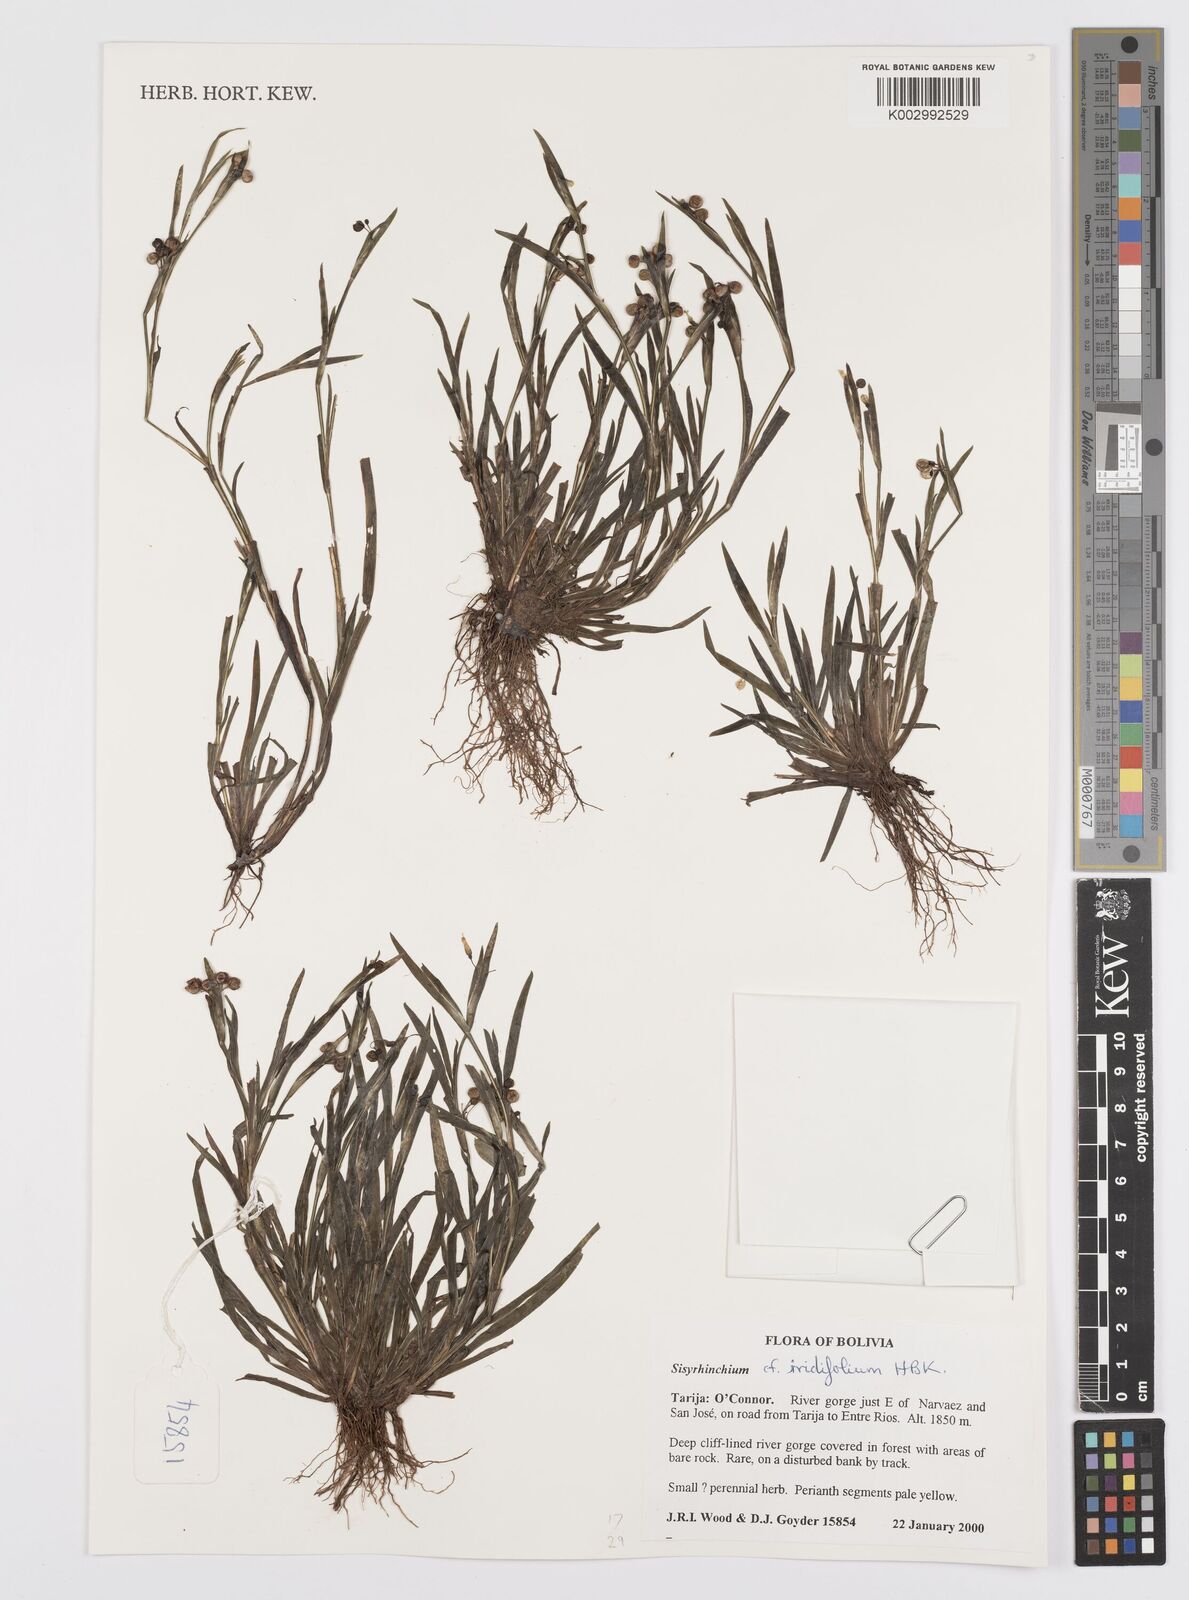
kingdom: Plantae
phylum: Tracheophyta
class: Liliopsida
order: Asparagales
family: Iridaceae
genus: Sisyrinchium
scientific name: Sisyrinchium micranthum
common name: Bermuda pigroot
